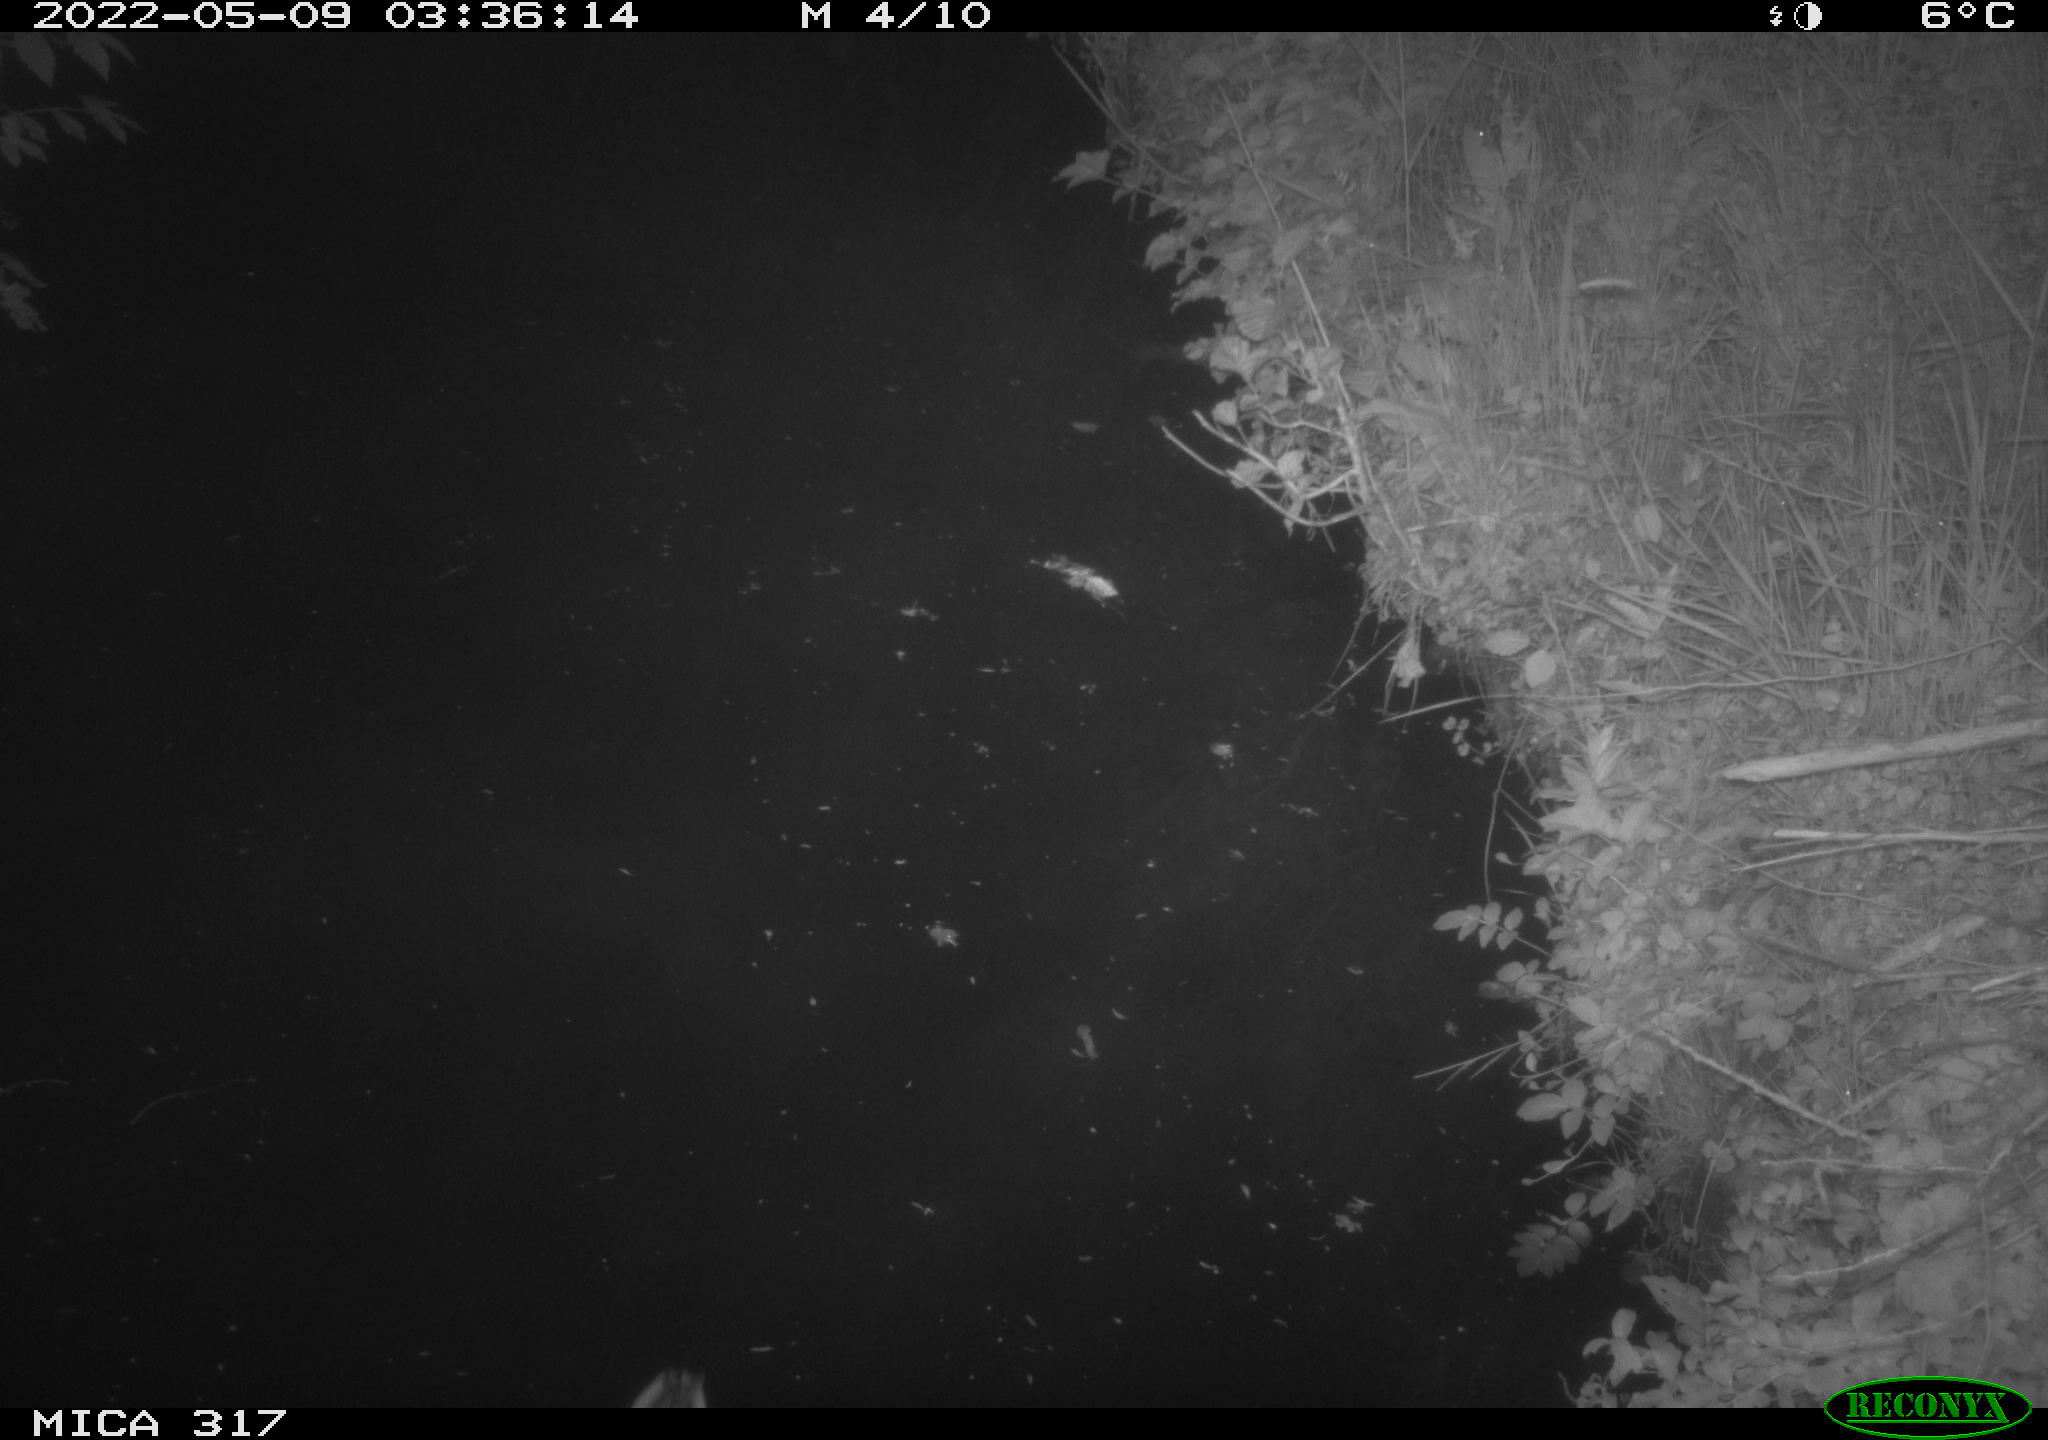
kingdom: Animalia
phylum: Chordata
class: Aves
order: Anseriformes
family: Anatidae
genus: Anas
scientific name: Anas platyrhynchos
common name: Mallard
